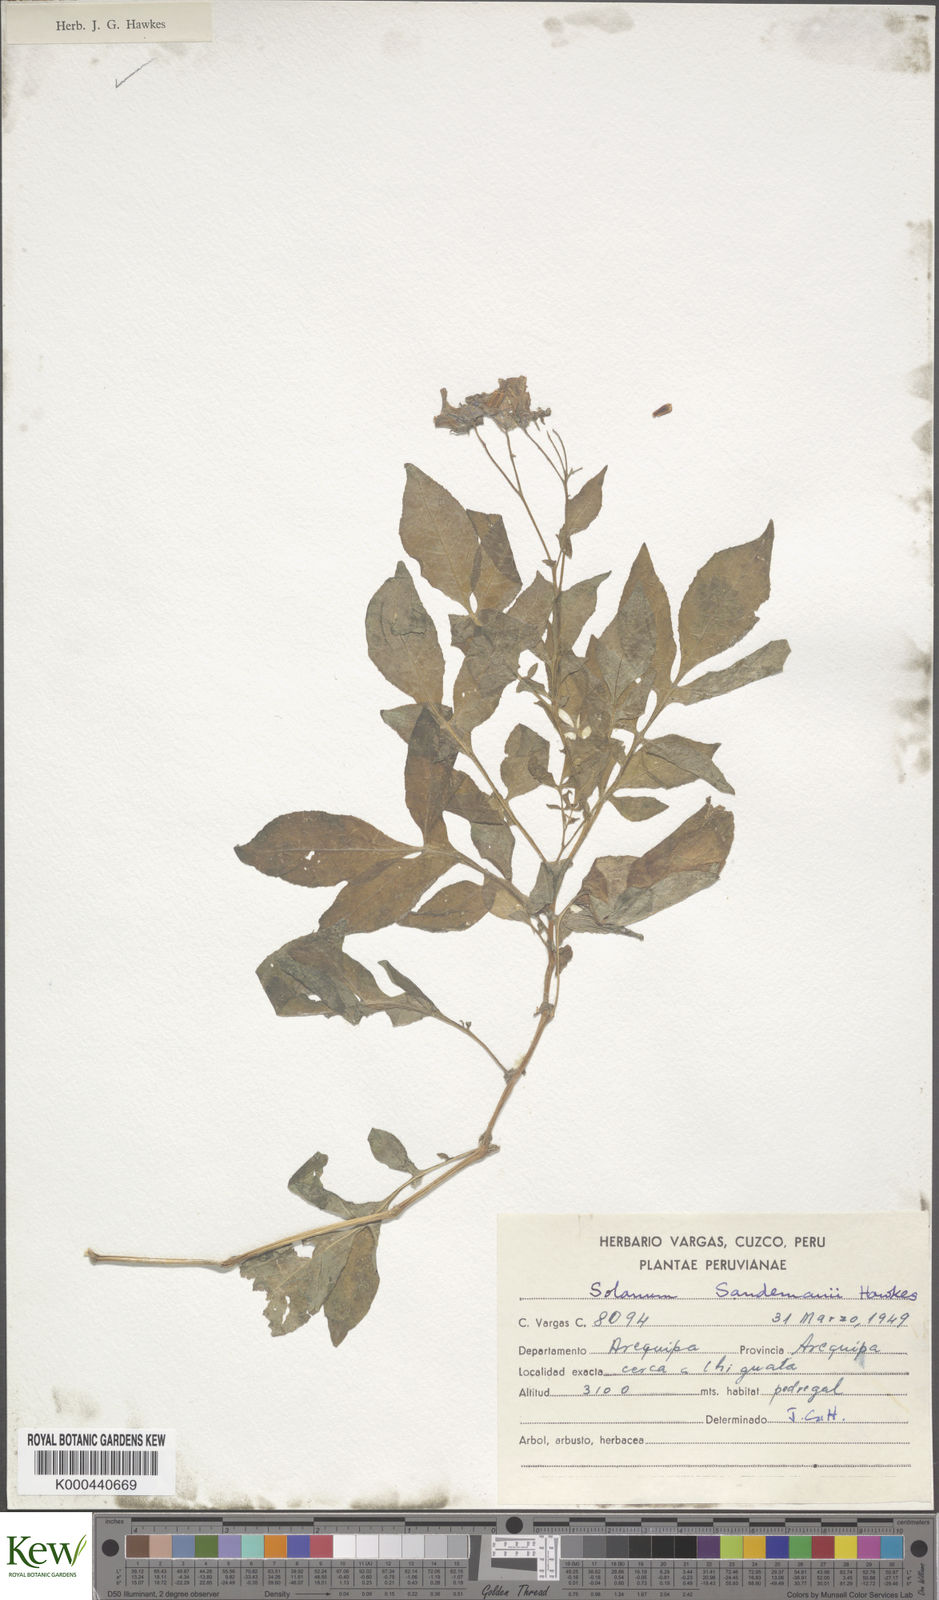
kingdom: Plantae
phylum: Tracheophyta
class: Magnoliopsida
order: Solanales
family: Solanaceae
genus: Solanum
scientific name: Solanum medians
